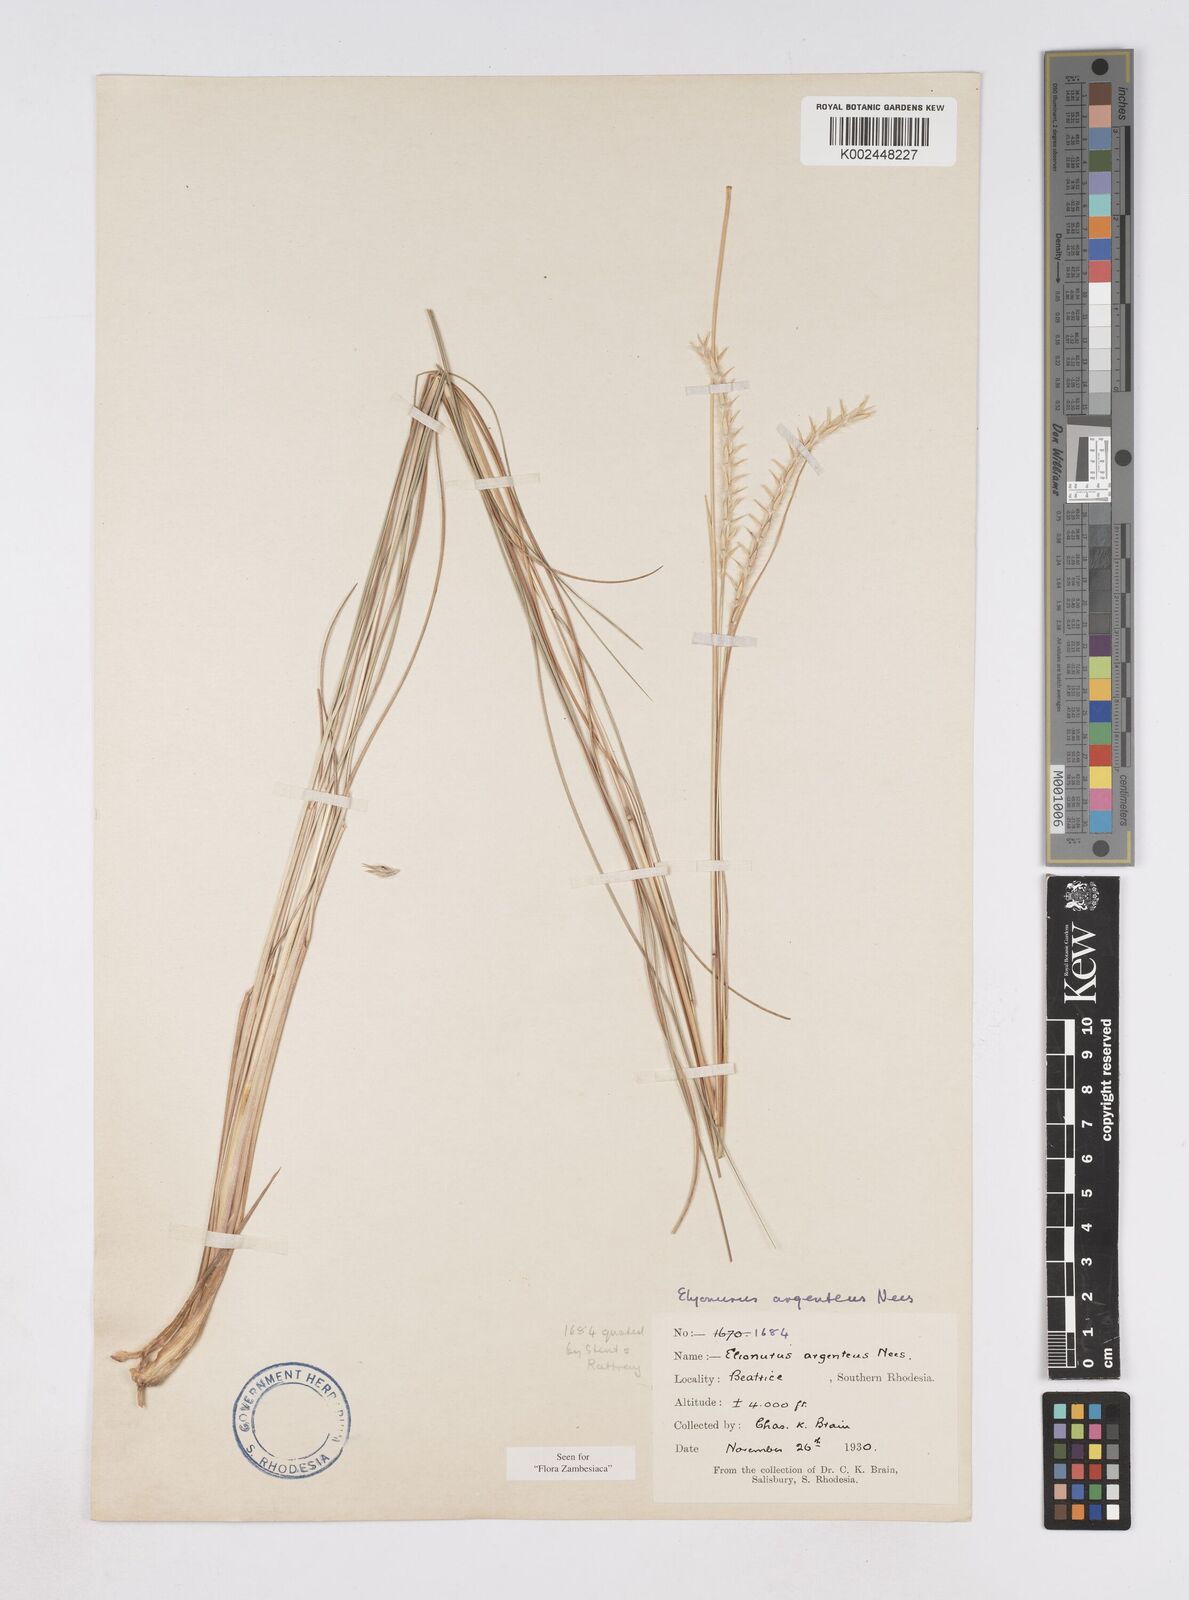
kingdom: Plantae
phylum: Tracheophyta
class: Liliopsida
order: Poales
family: Poaceae
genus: Elionurus
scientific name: Elionurus muticus
